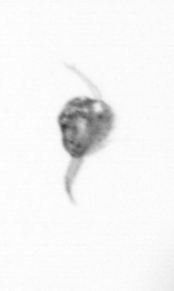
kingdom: Animalia
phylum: Arthropoda
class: Copepoda
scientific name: Copepoda
